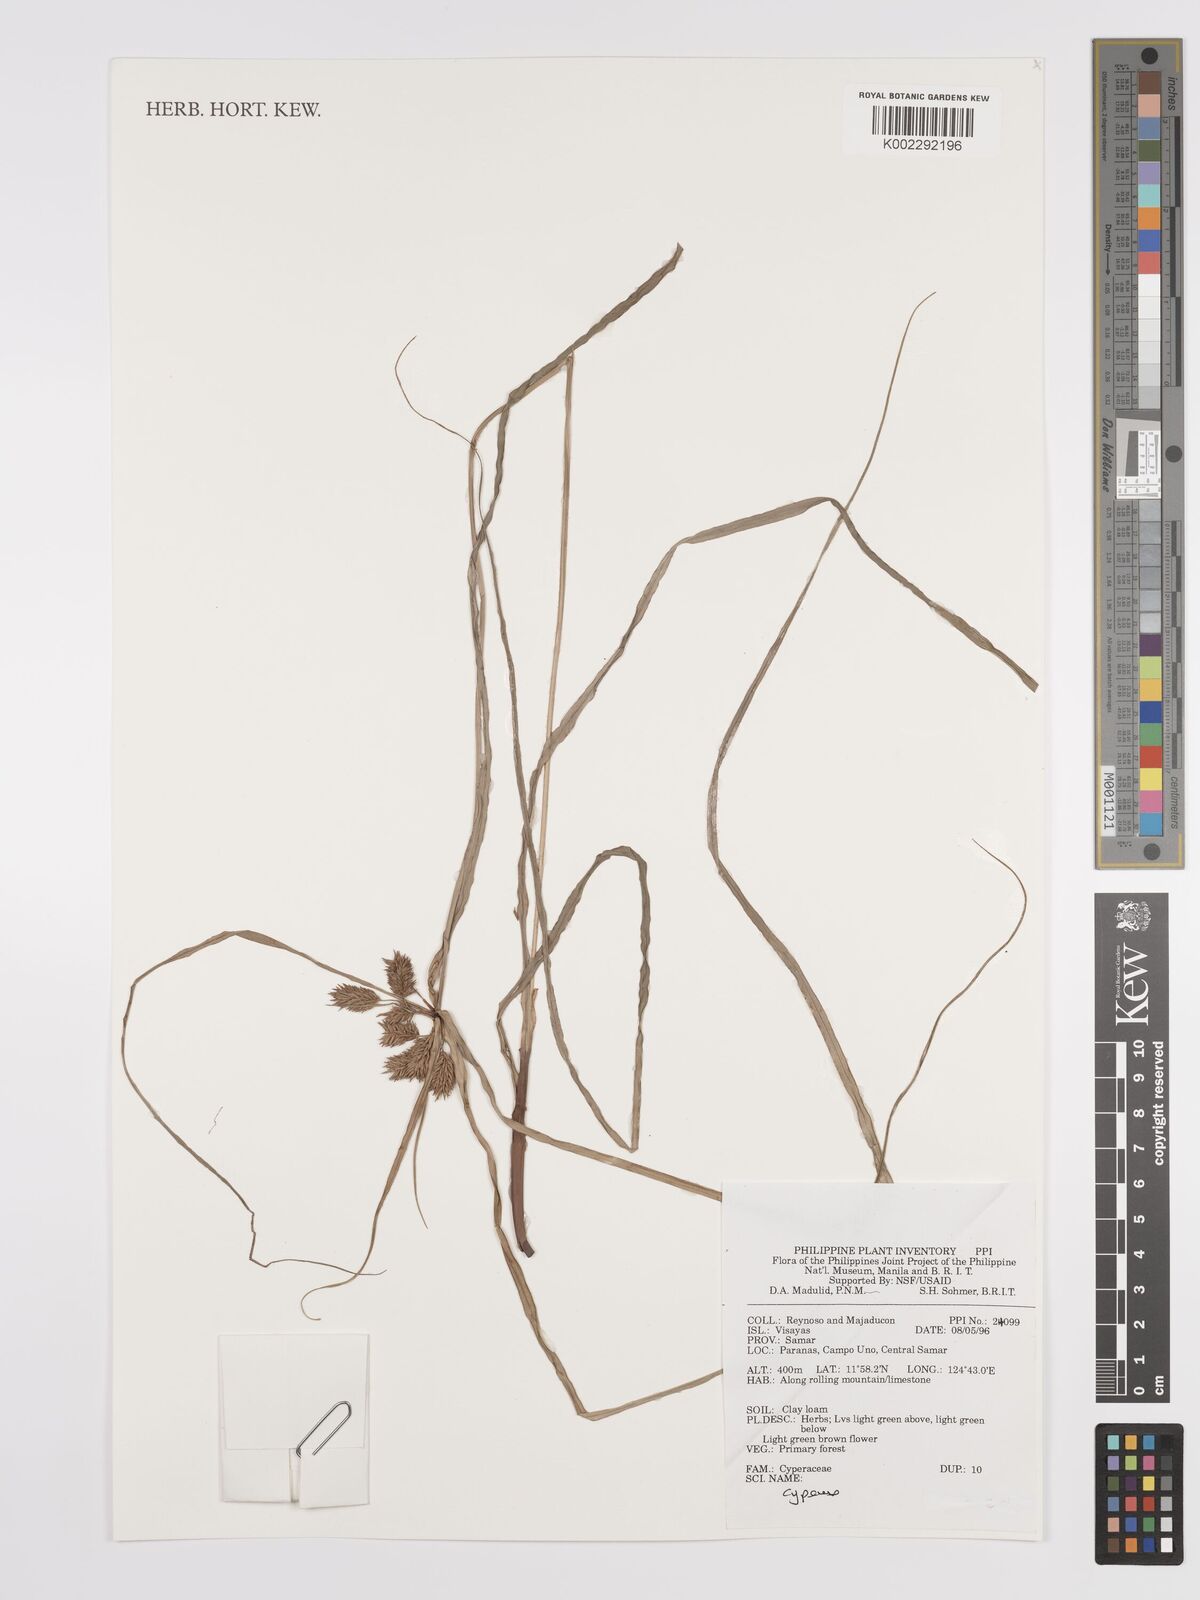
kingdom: Plantae
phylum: Tracheophyta
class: Liliopsida
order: Poales
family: Cyperaceae
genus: Cyperus
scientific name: Cyperus
